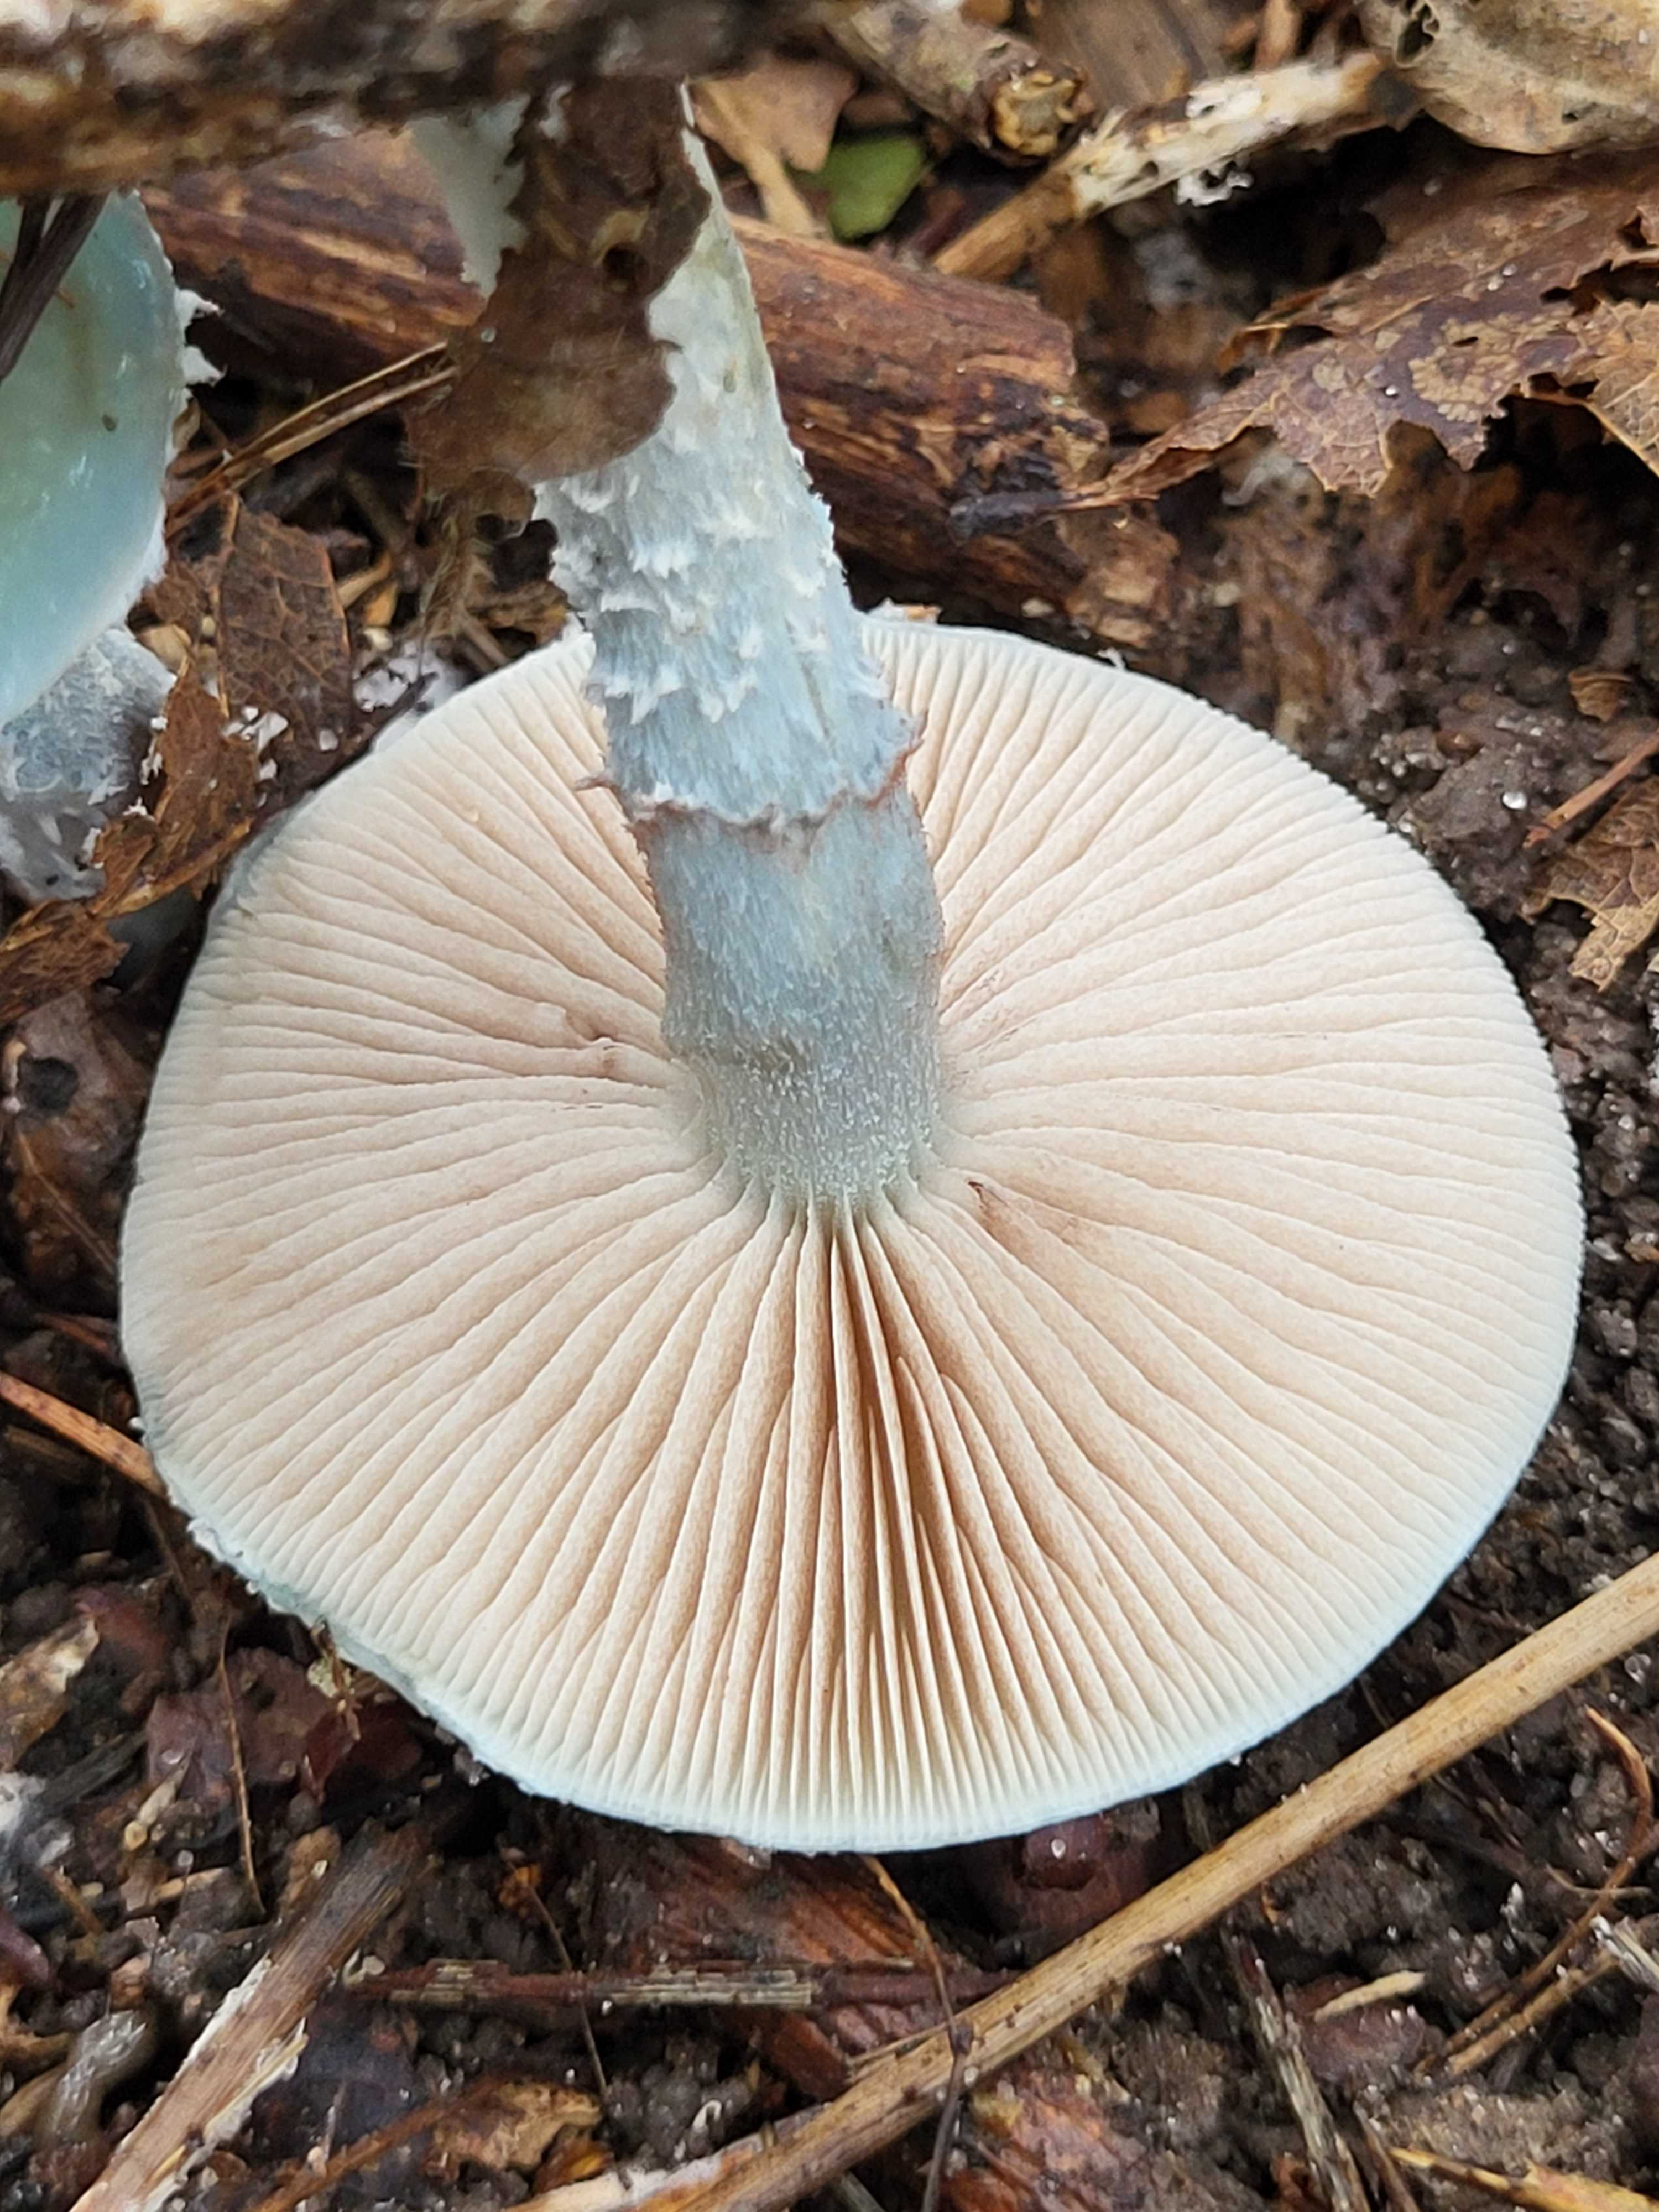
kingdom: Fungi
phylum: Basidiomycota
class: Agaricomycetes
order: Agaricales
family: Strophariaceae
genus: Stropharia
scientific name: Stropharia cyanea
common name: blågrøn bredblad
